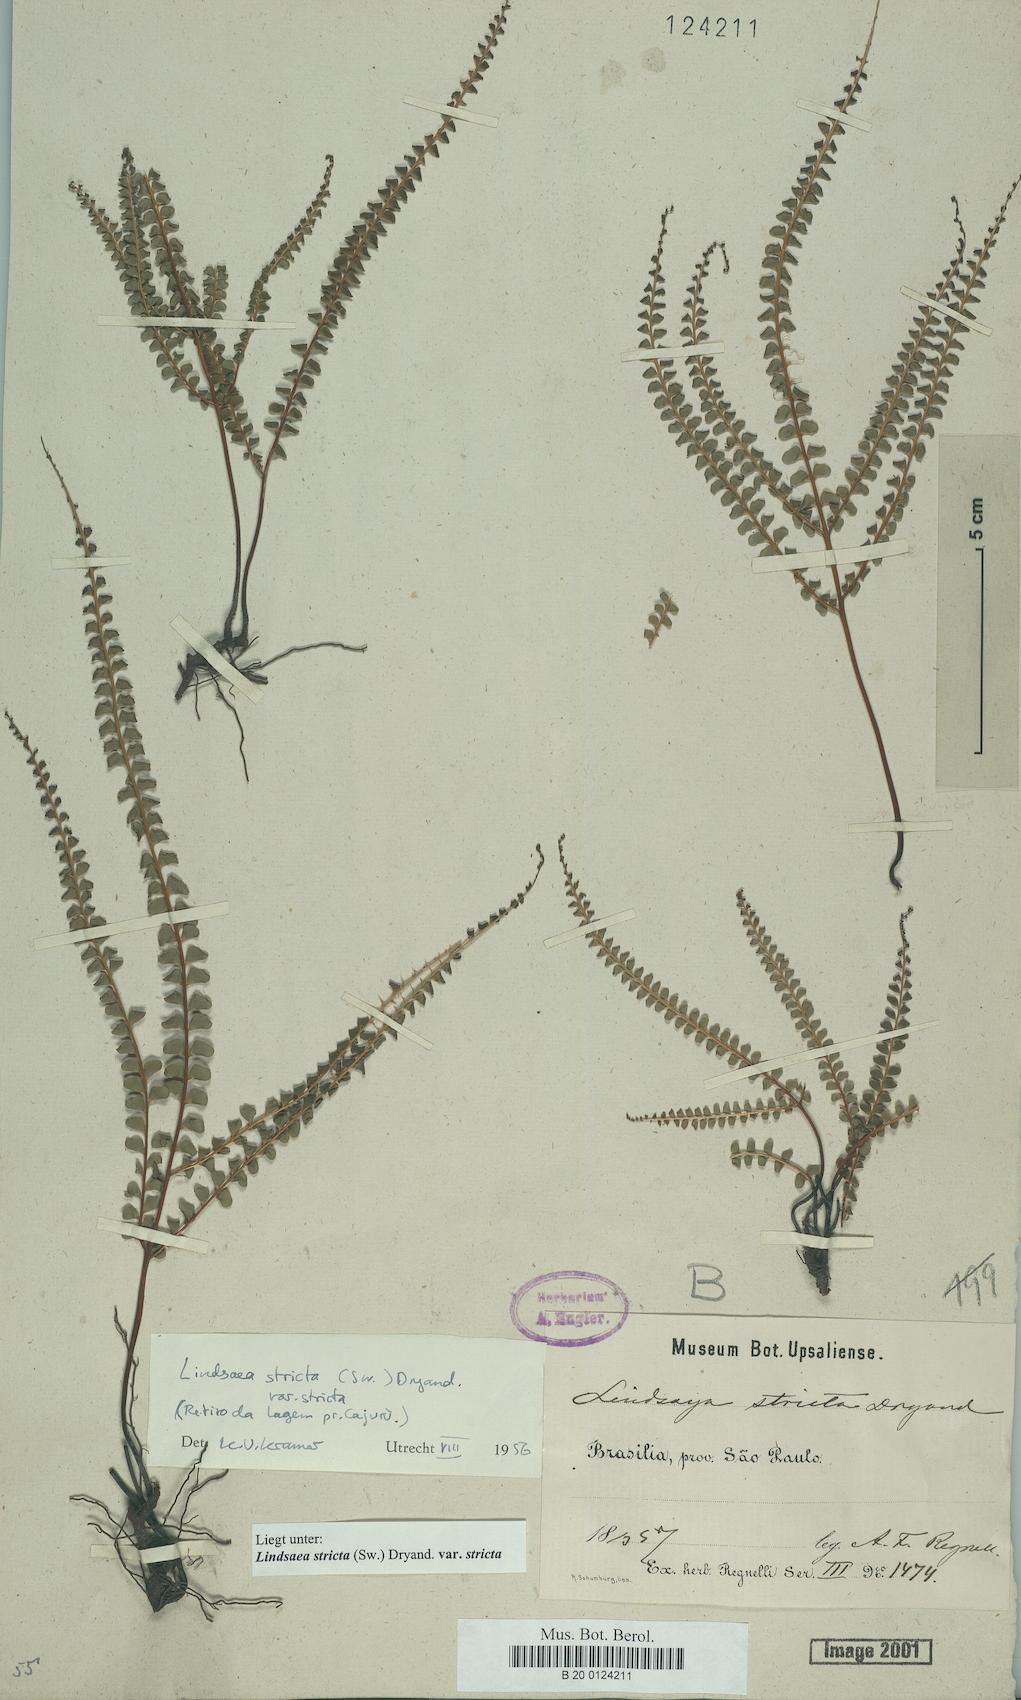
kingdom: Plantae
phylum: Tracheophyta
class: Polypodiopsida
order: Polypodiales
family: Lindsaeaceae
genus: Lindsaea
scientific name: Lindsaea stricta
